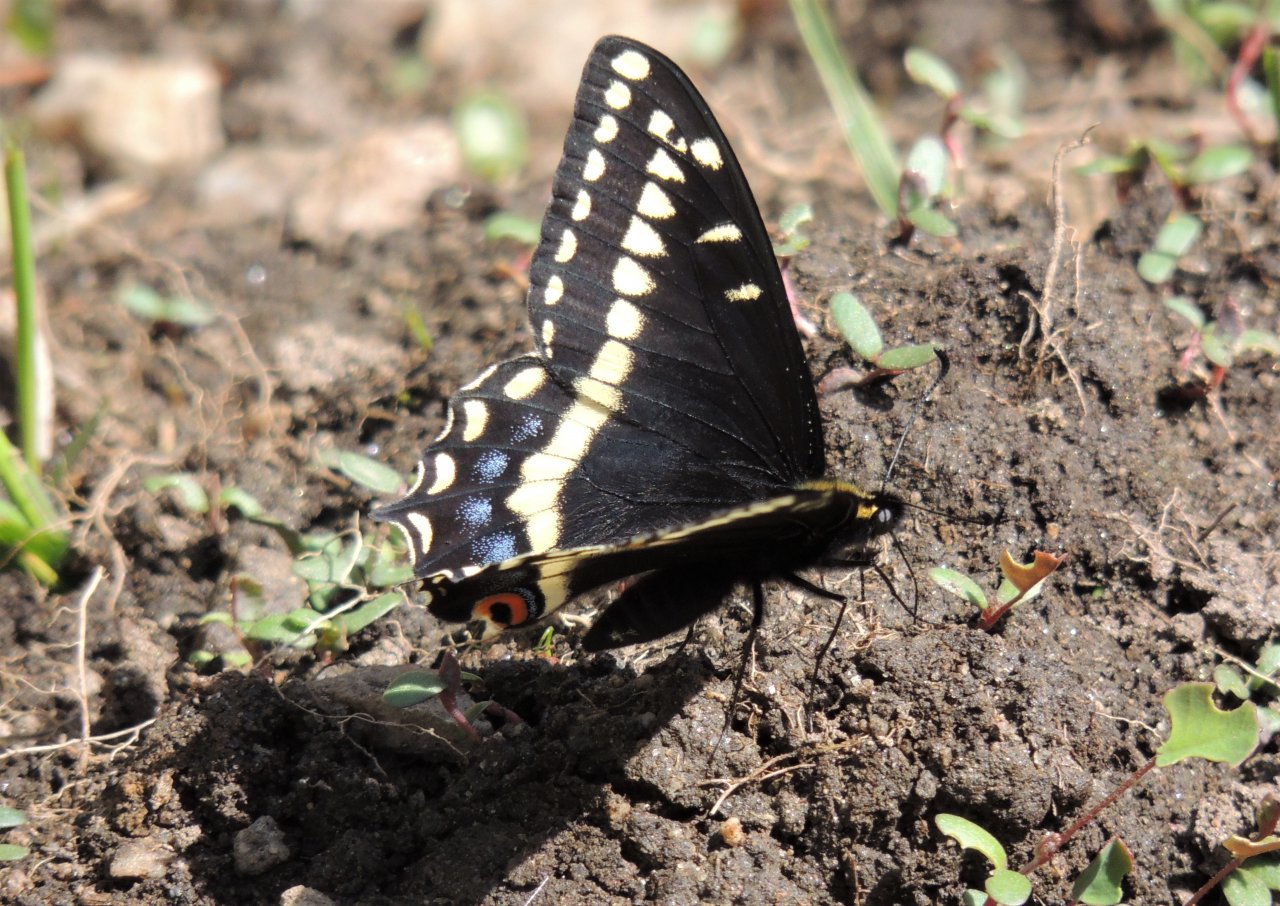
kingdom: Animalia
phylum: Arthropoda
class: Insecta
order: Lepidoptera
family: Papilionidae
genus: Papilio
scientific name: Papilio indra
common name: Indra Swallowtail
